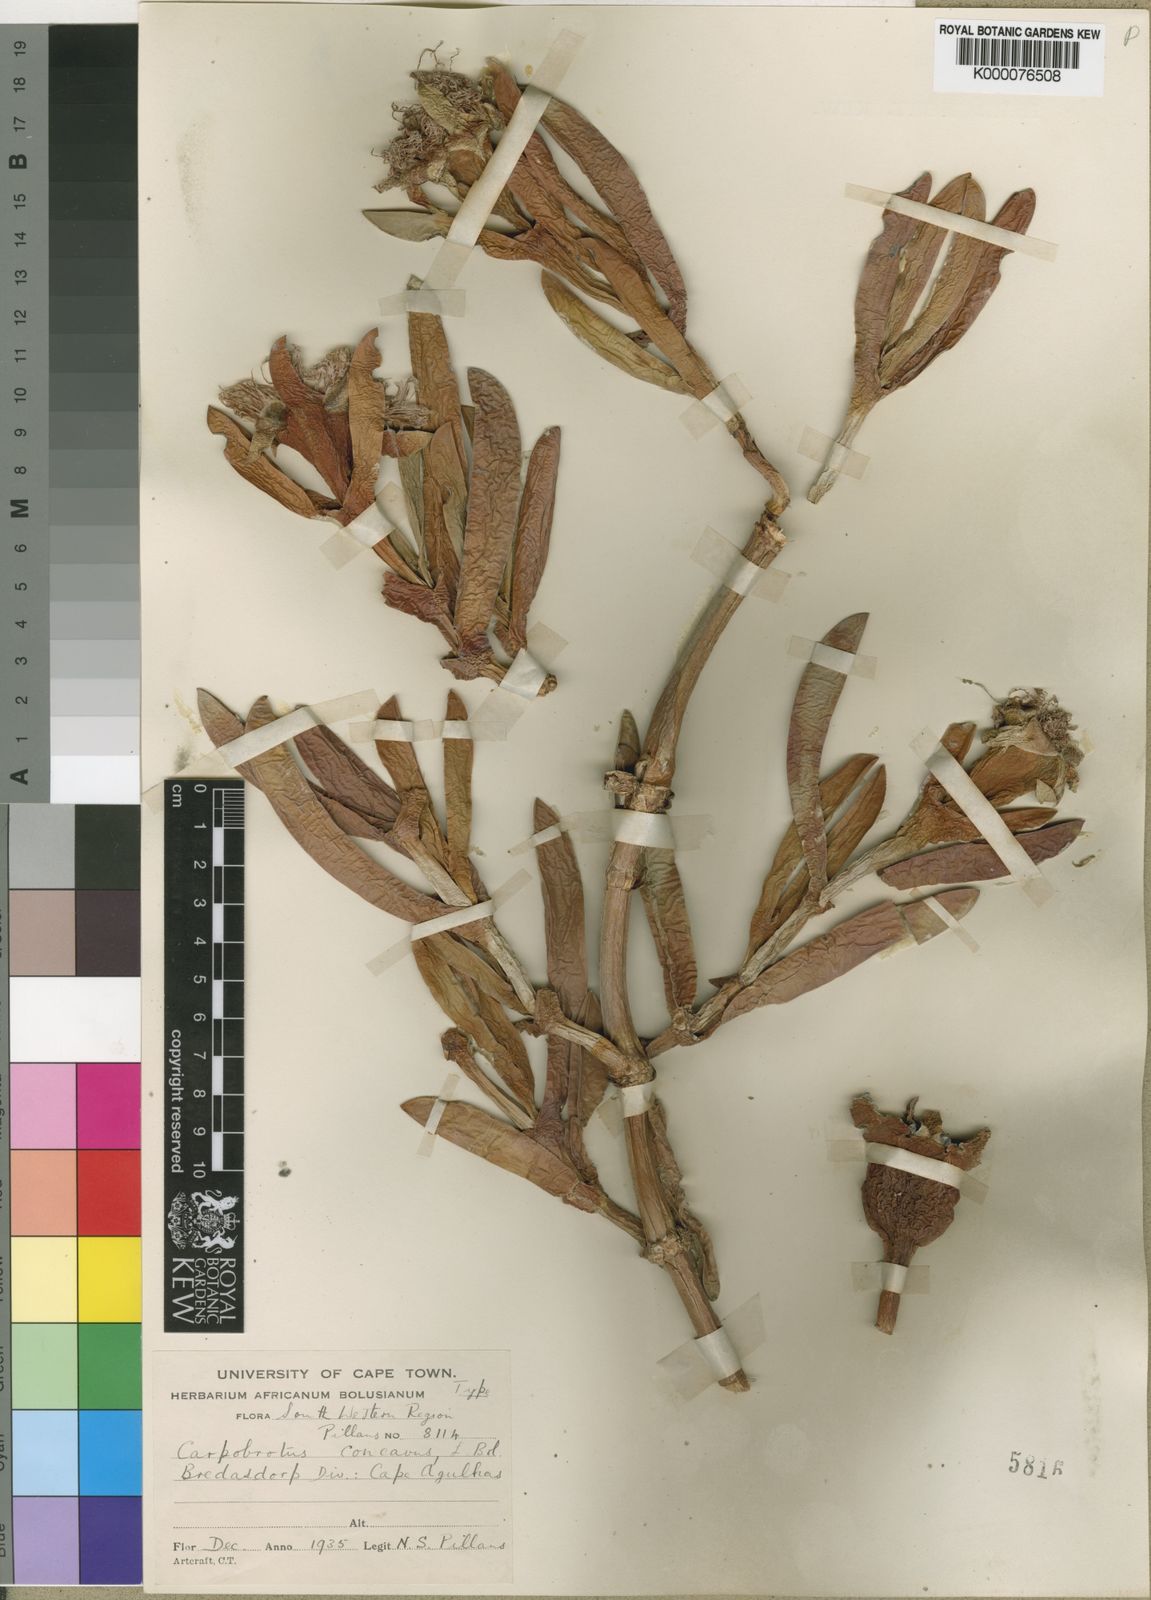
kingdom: Plantae
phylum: Tracheophyta
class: Magnoliopsida
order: Caryophyllales
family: Aizoaceae
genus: Carpobrotus
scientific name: Carpobrotus acinaciformis
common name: Sally-my-handsome
